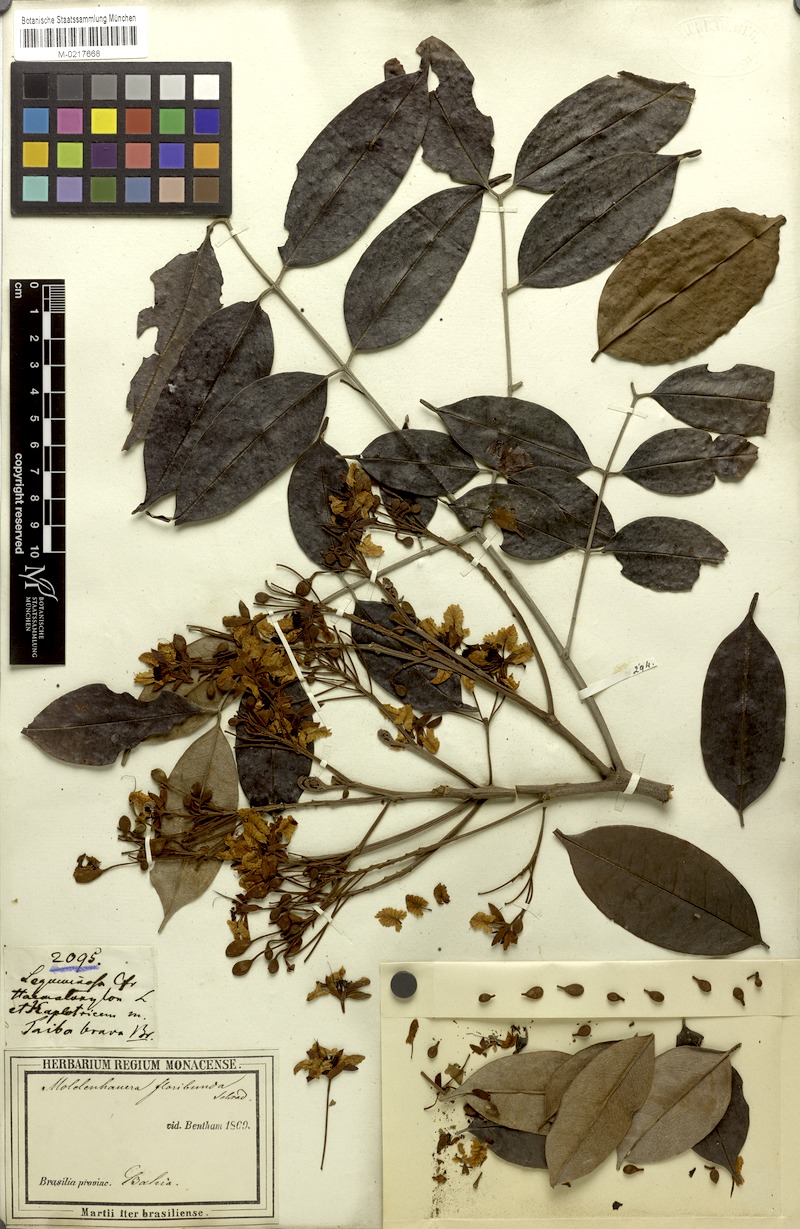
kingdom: Plantae
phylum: Tracheophyta
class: Magnoliopsida
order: Fabales
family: Fabaceae
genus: Moldenhawera
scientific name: Moldenhawera floribunda
